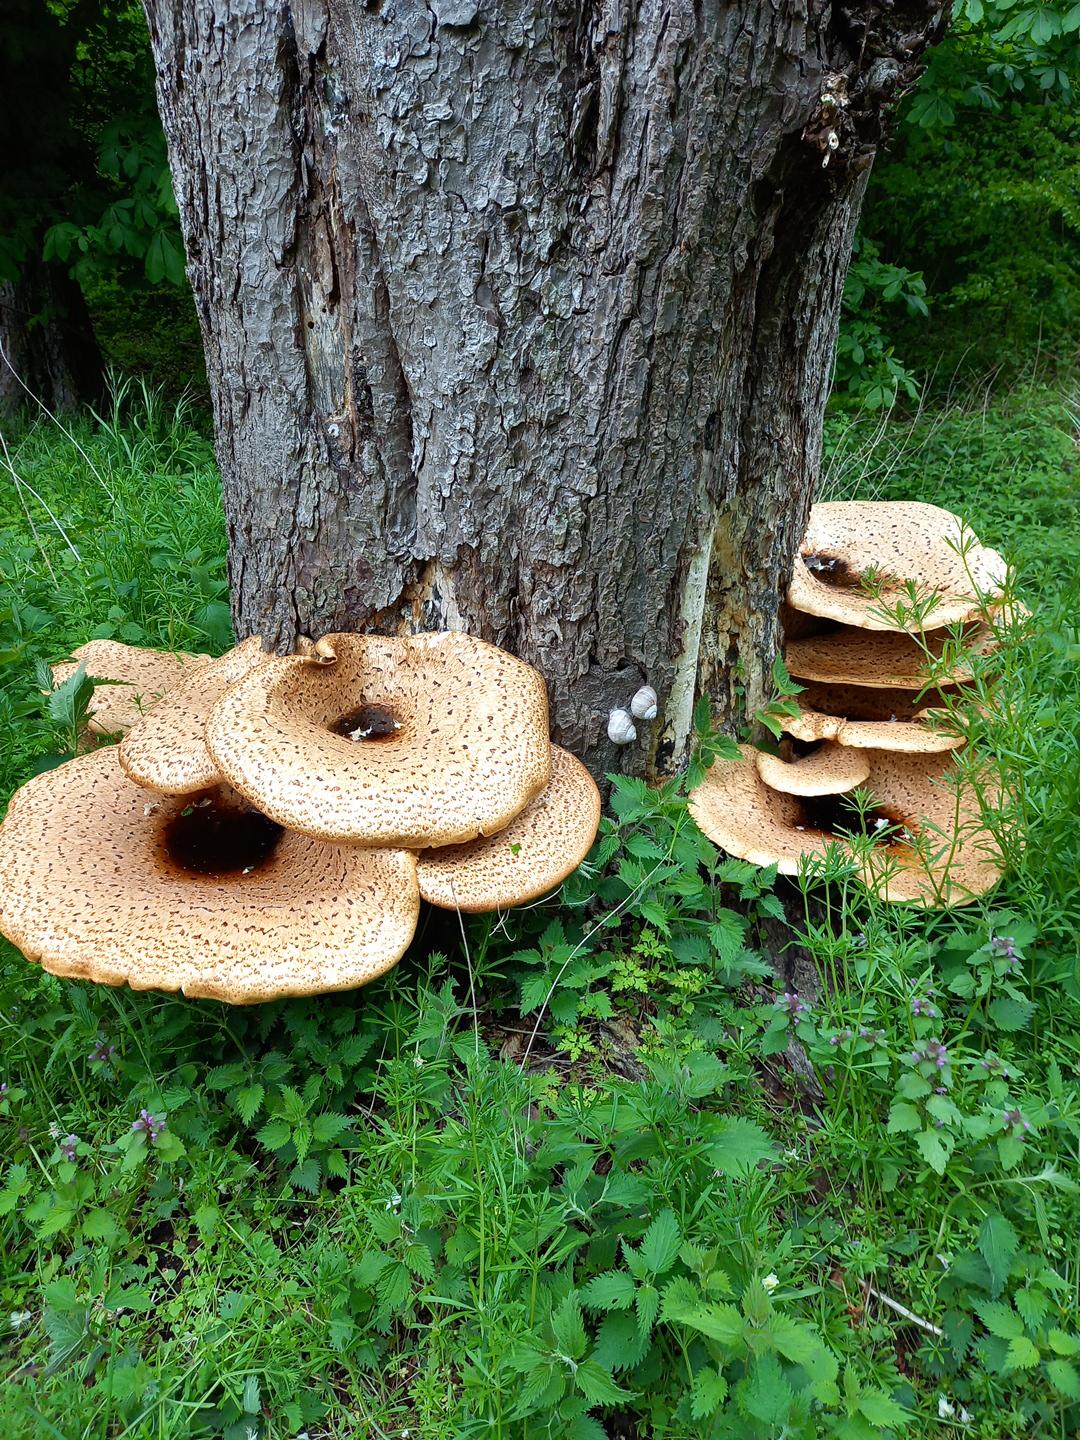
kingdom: Fungi
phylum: Basidiomycota
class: Agaricomycetes
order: Polyporales
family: Polyporaceae
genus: Cerioporus
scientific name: Cerioporus squamosus
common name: skællet stilkporesvamp
